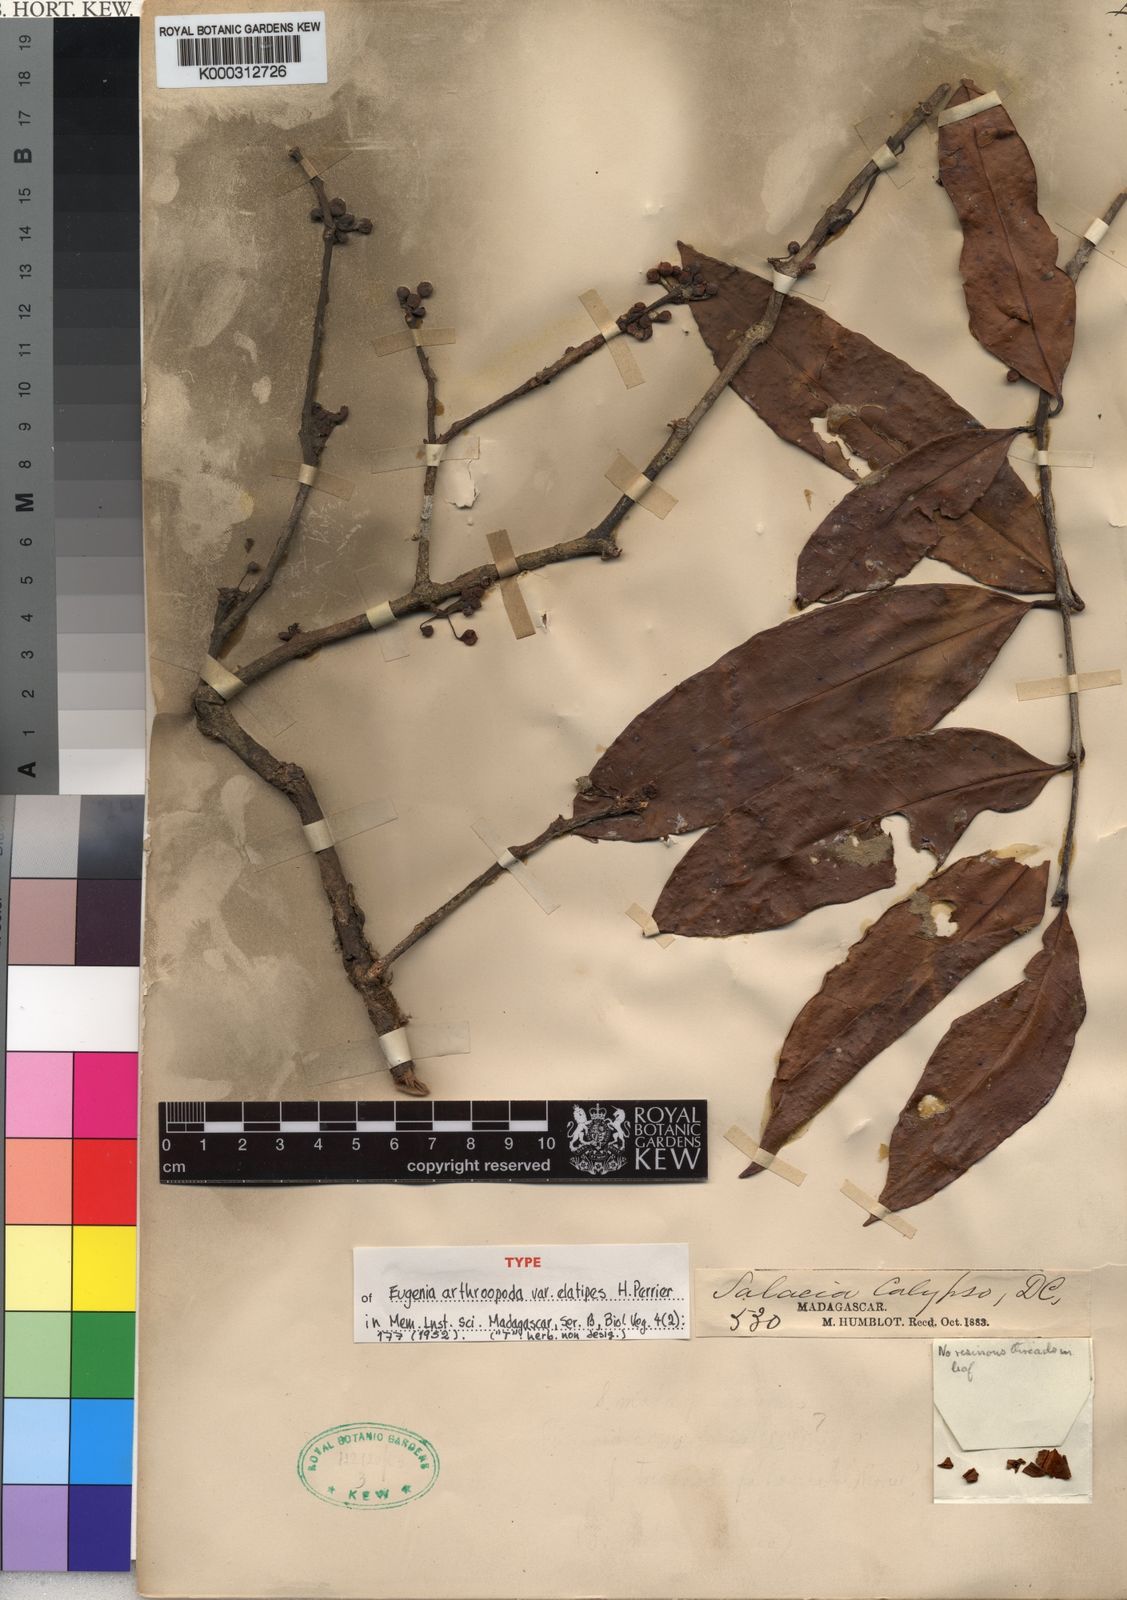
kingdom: Plantae
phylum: Tracheophyta
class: Magnoliopsida
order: Myrtales
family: Myrtaceae
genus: Eugenia
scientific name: Eugenia
